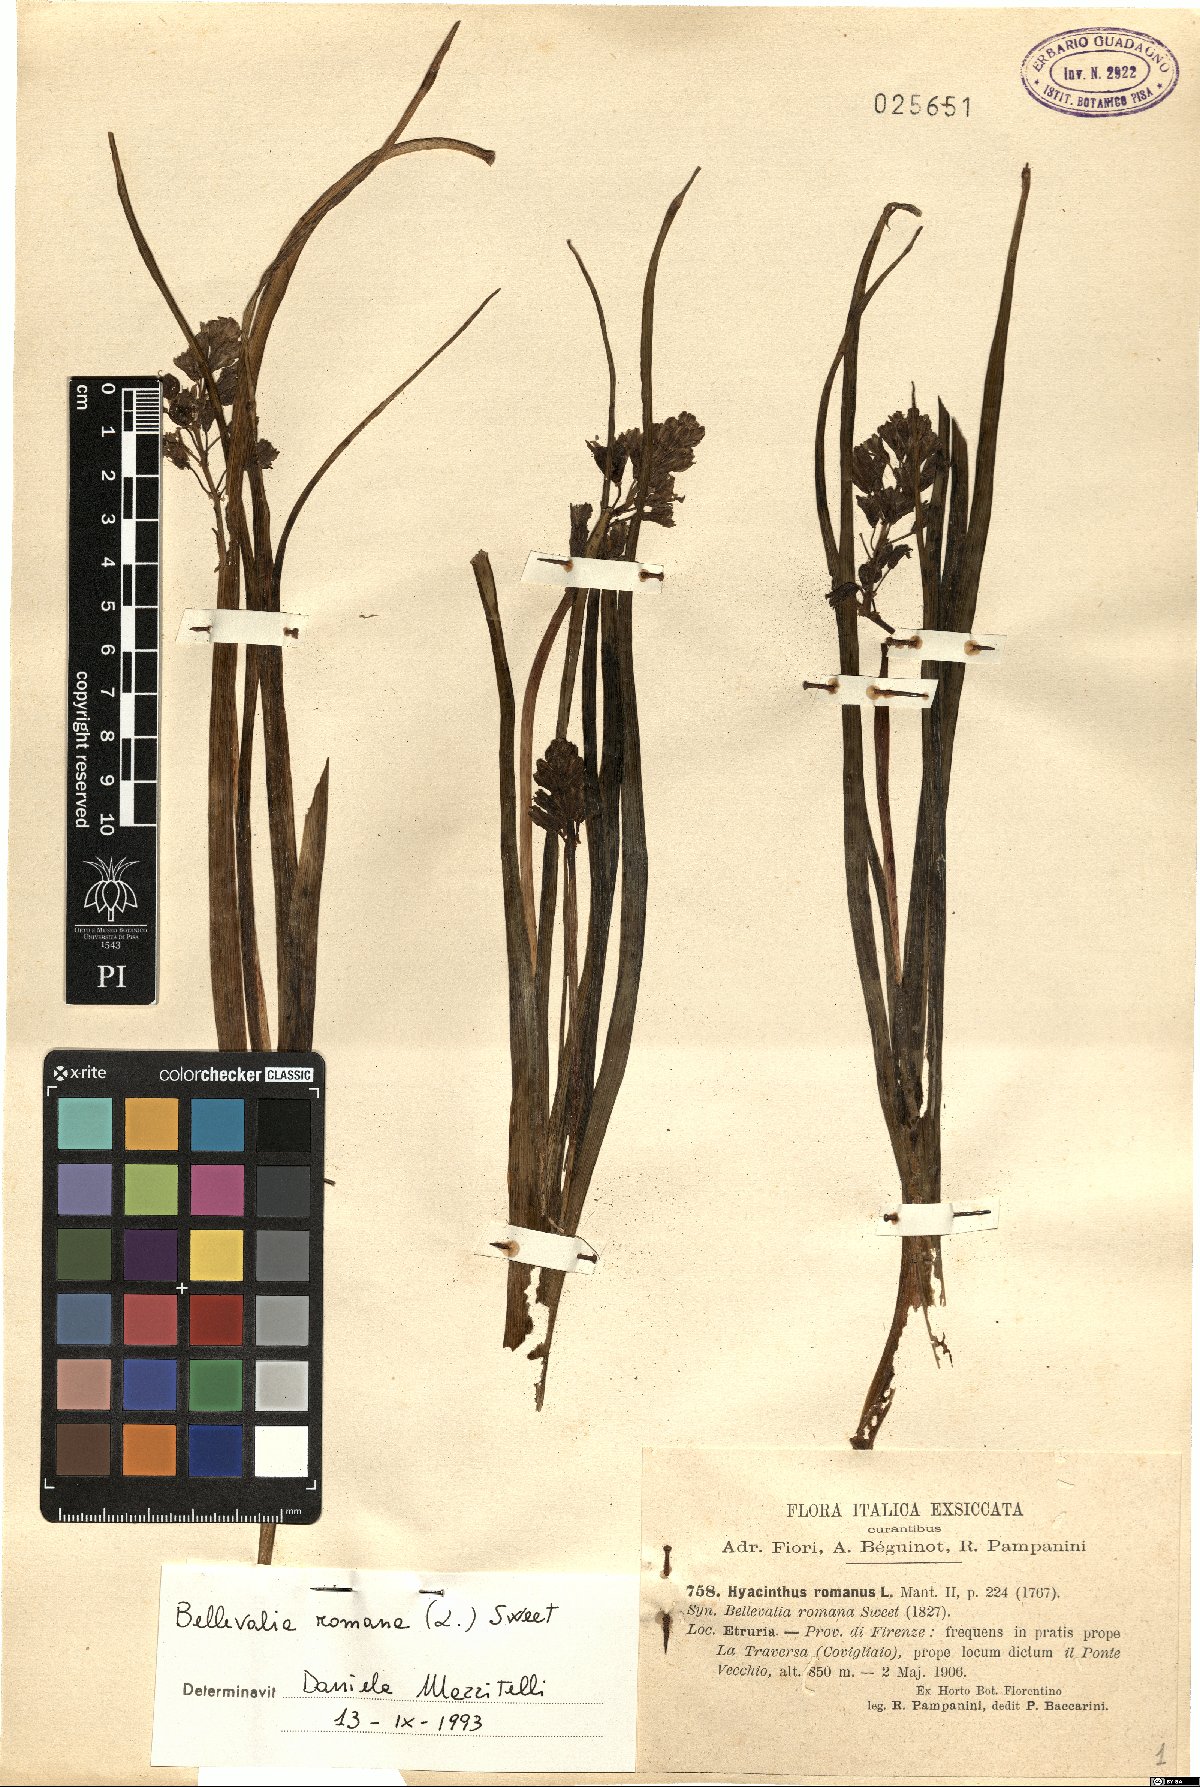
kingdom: Plantae
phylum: Tracheophyta
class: Liliopsida
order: Asparagales
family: Asparagaceae
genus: Bellevalia
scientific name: Bellevalia romana
